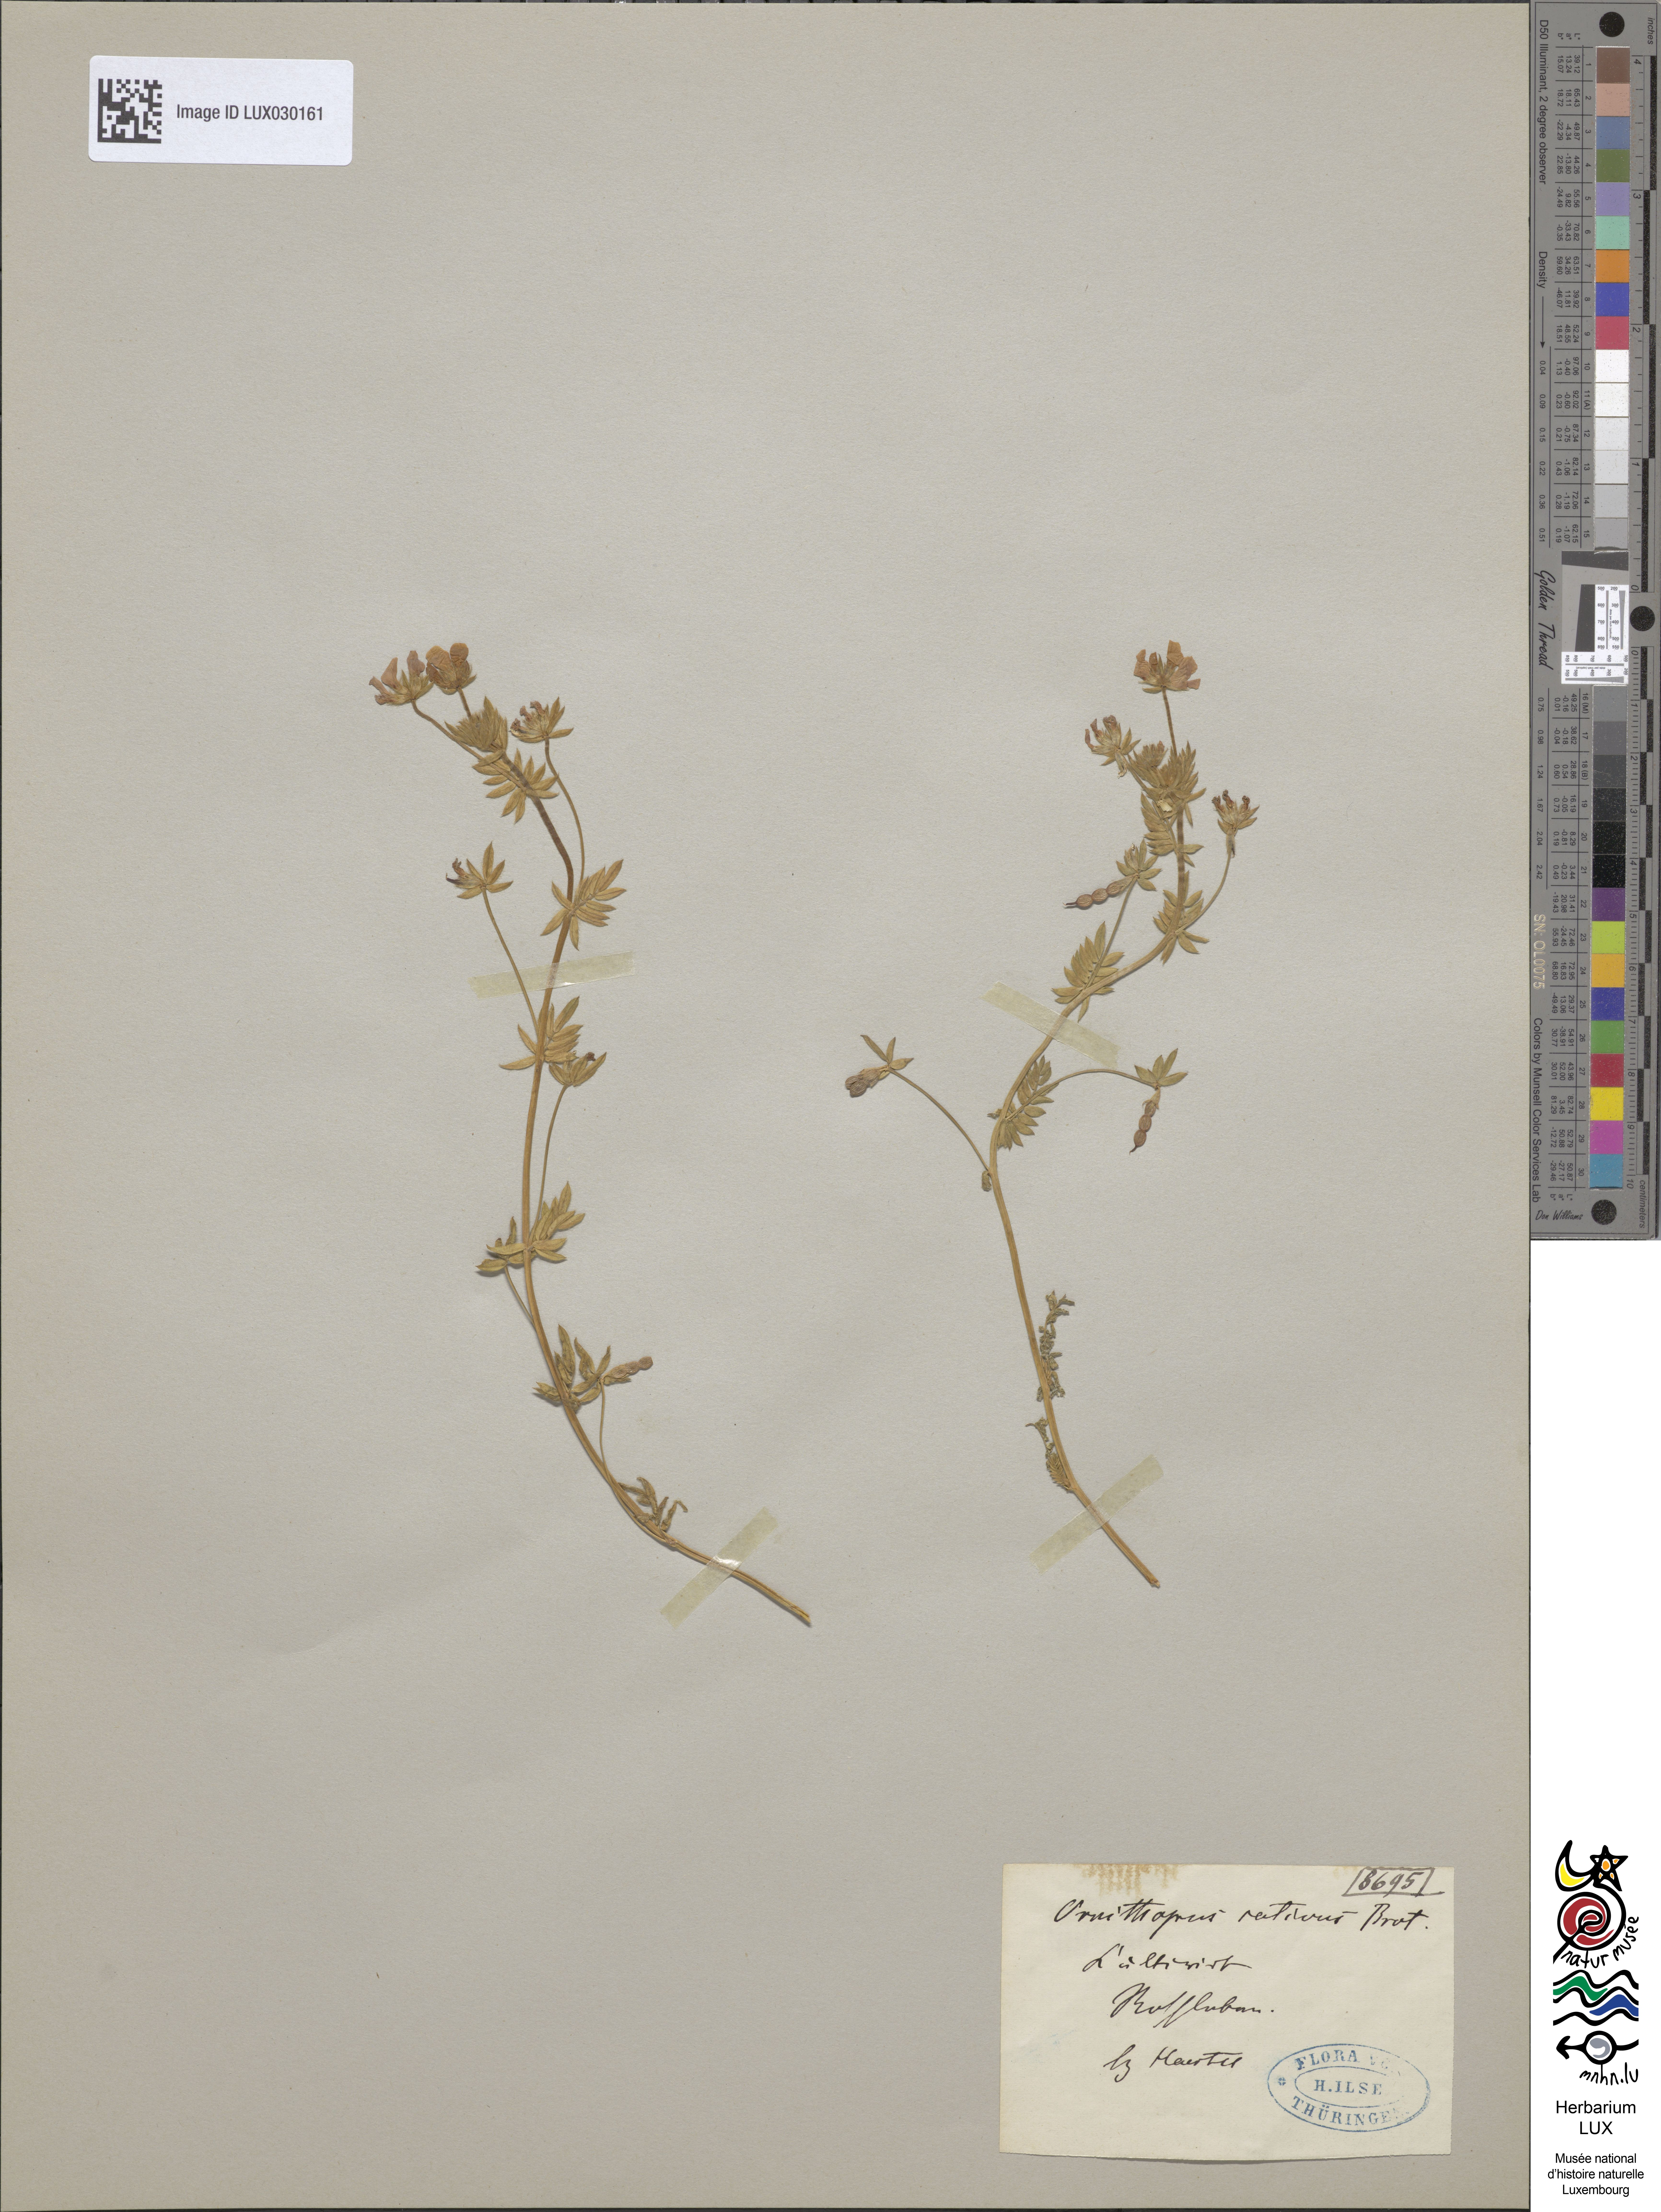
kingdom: Plantae
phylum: Tracheophyta
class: Magnoliopsida
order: Fabales
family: Fabaceae
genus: Ornithopus
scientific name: Ornithopus sativus
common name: Serradella
